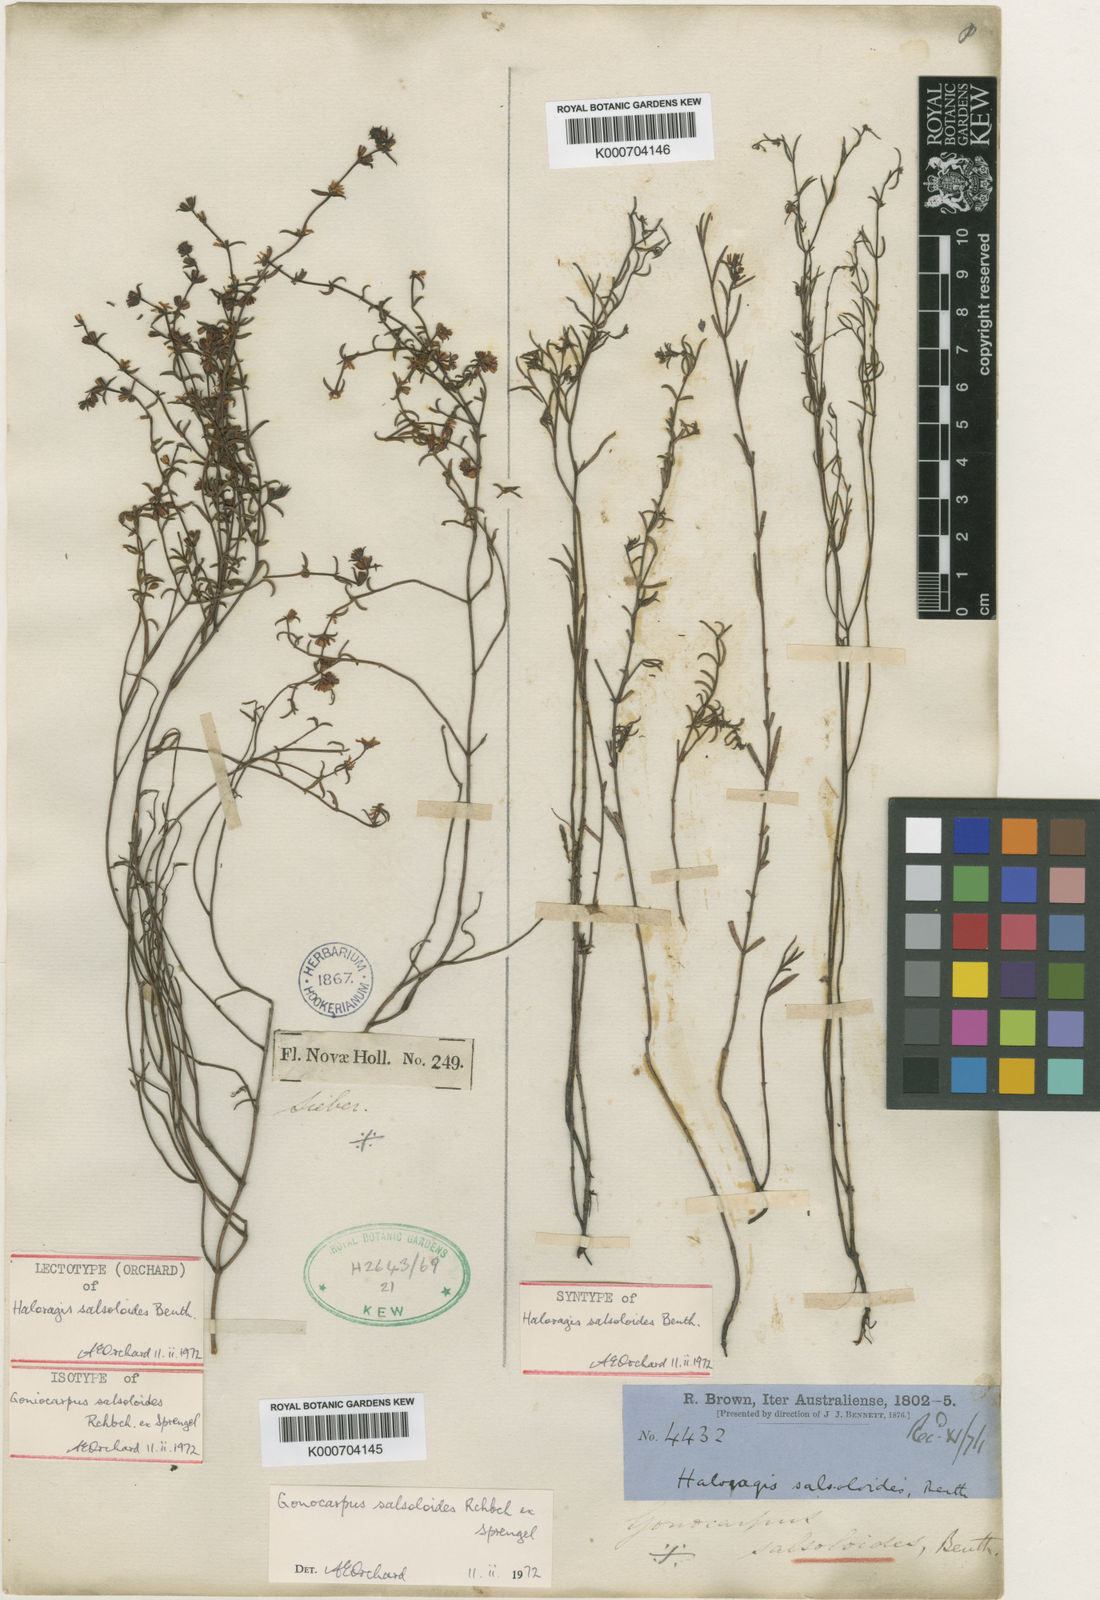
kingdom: Plantae
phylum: Tracheophyta
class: Magnoliopsida
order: Saxifragales
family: Haloragaceae
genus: Gonocarpus
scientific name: Gonocarpus salsoloides
